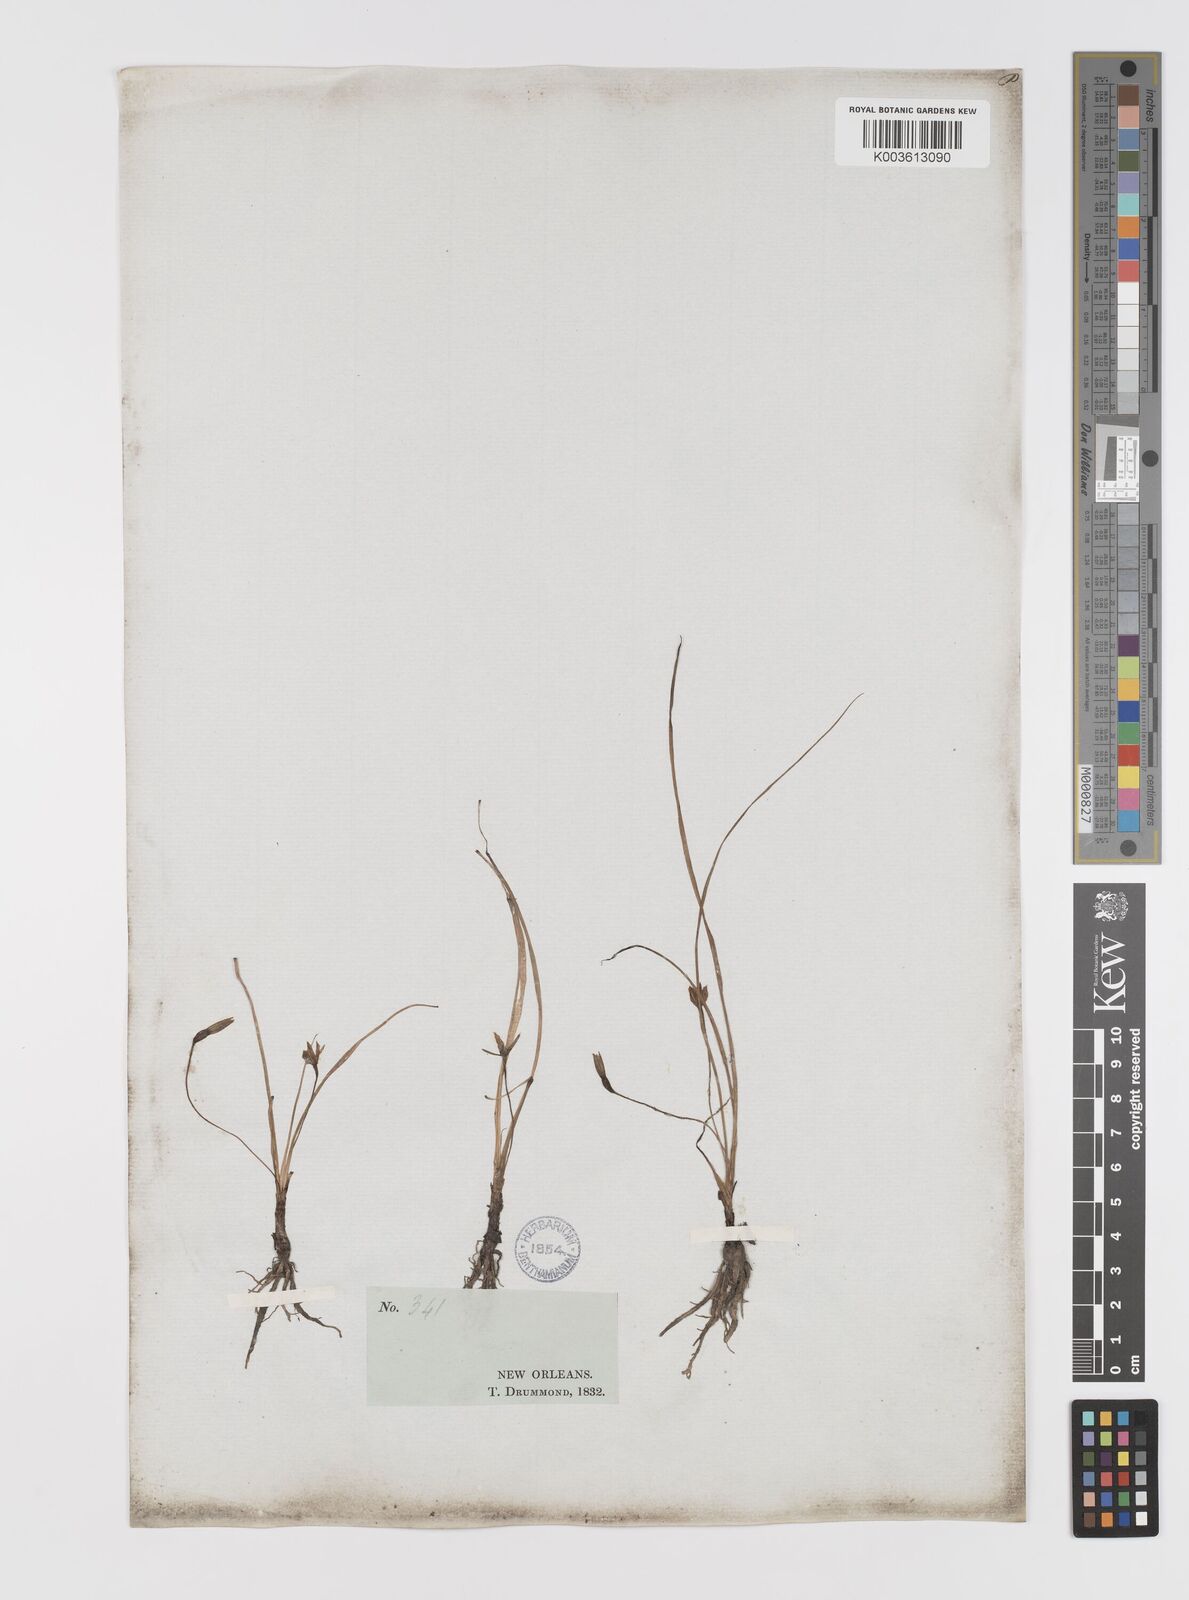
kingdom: Plantae
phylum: Tracheophyta
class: Liliopsida
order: Asparagales
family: Hypoxidaceae
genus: Hypoxis
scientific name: Hypoxis hirsuta
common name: Common goldstar
